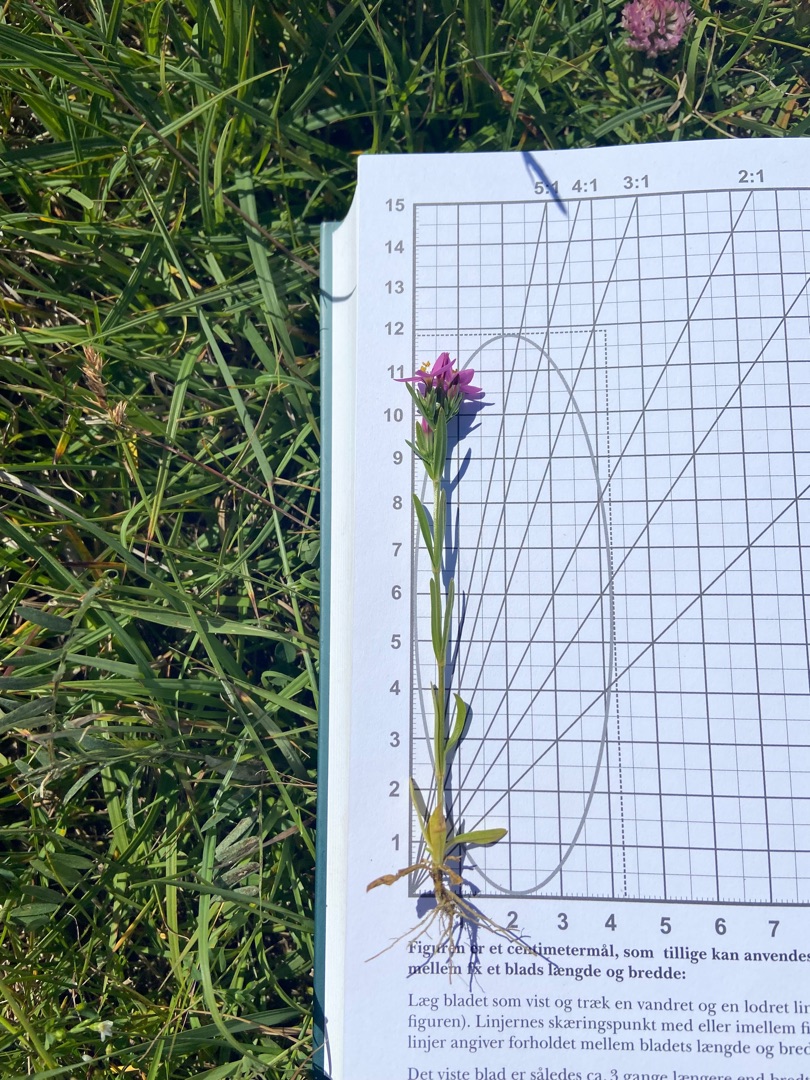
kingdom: Plantae
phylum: Tracheophyta
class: Magnoliopsida
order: Gentianales
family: Gentianaceae
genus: Centaurium
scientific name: Centaurium littorale
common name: Strand-tusindgylden
